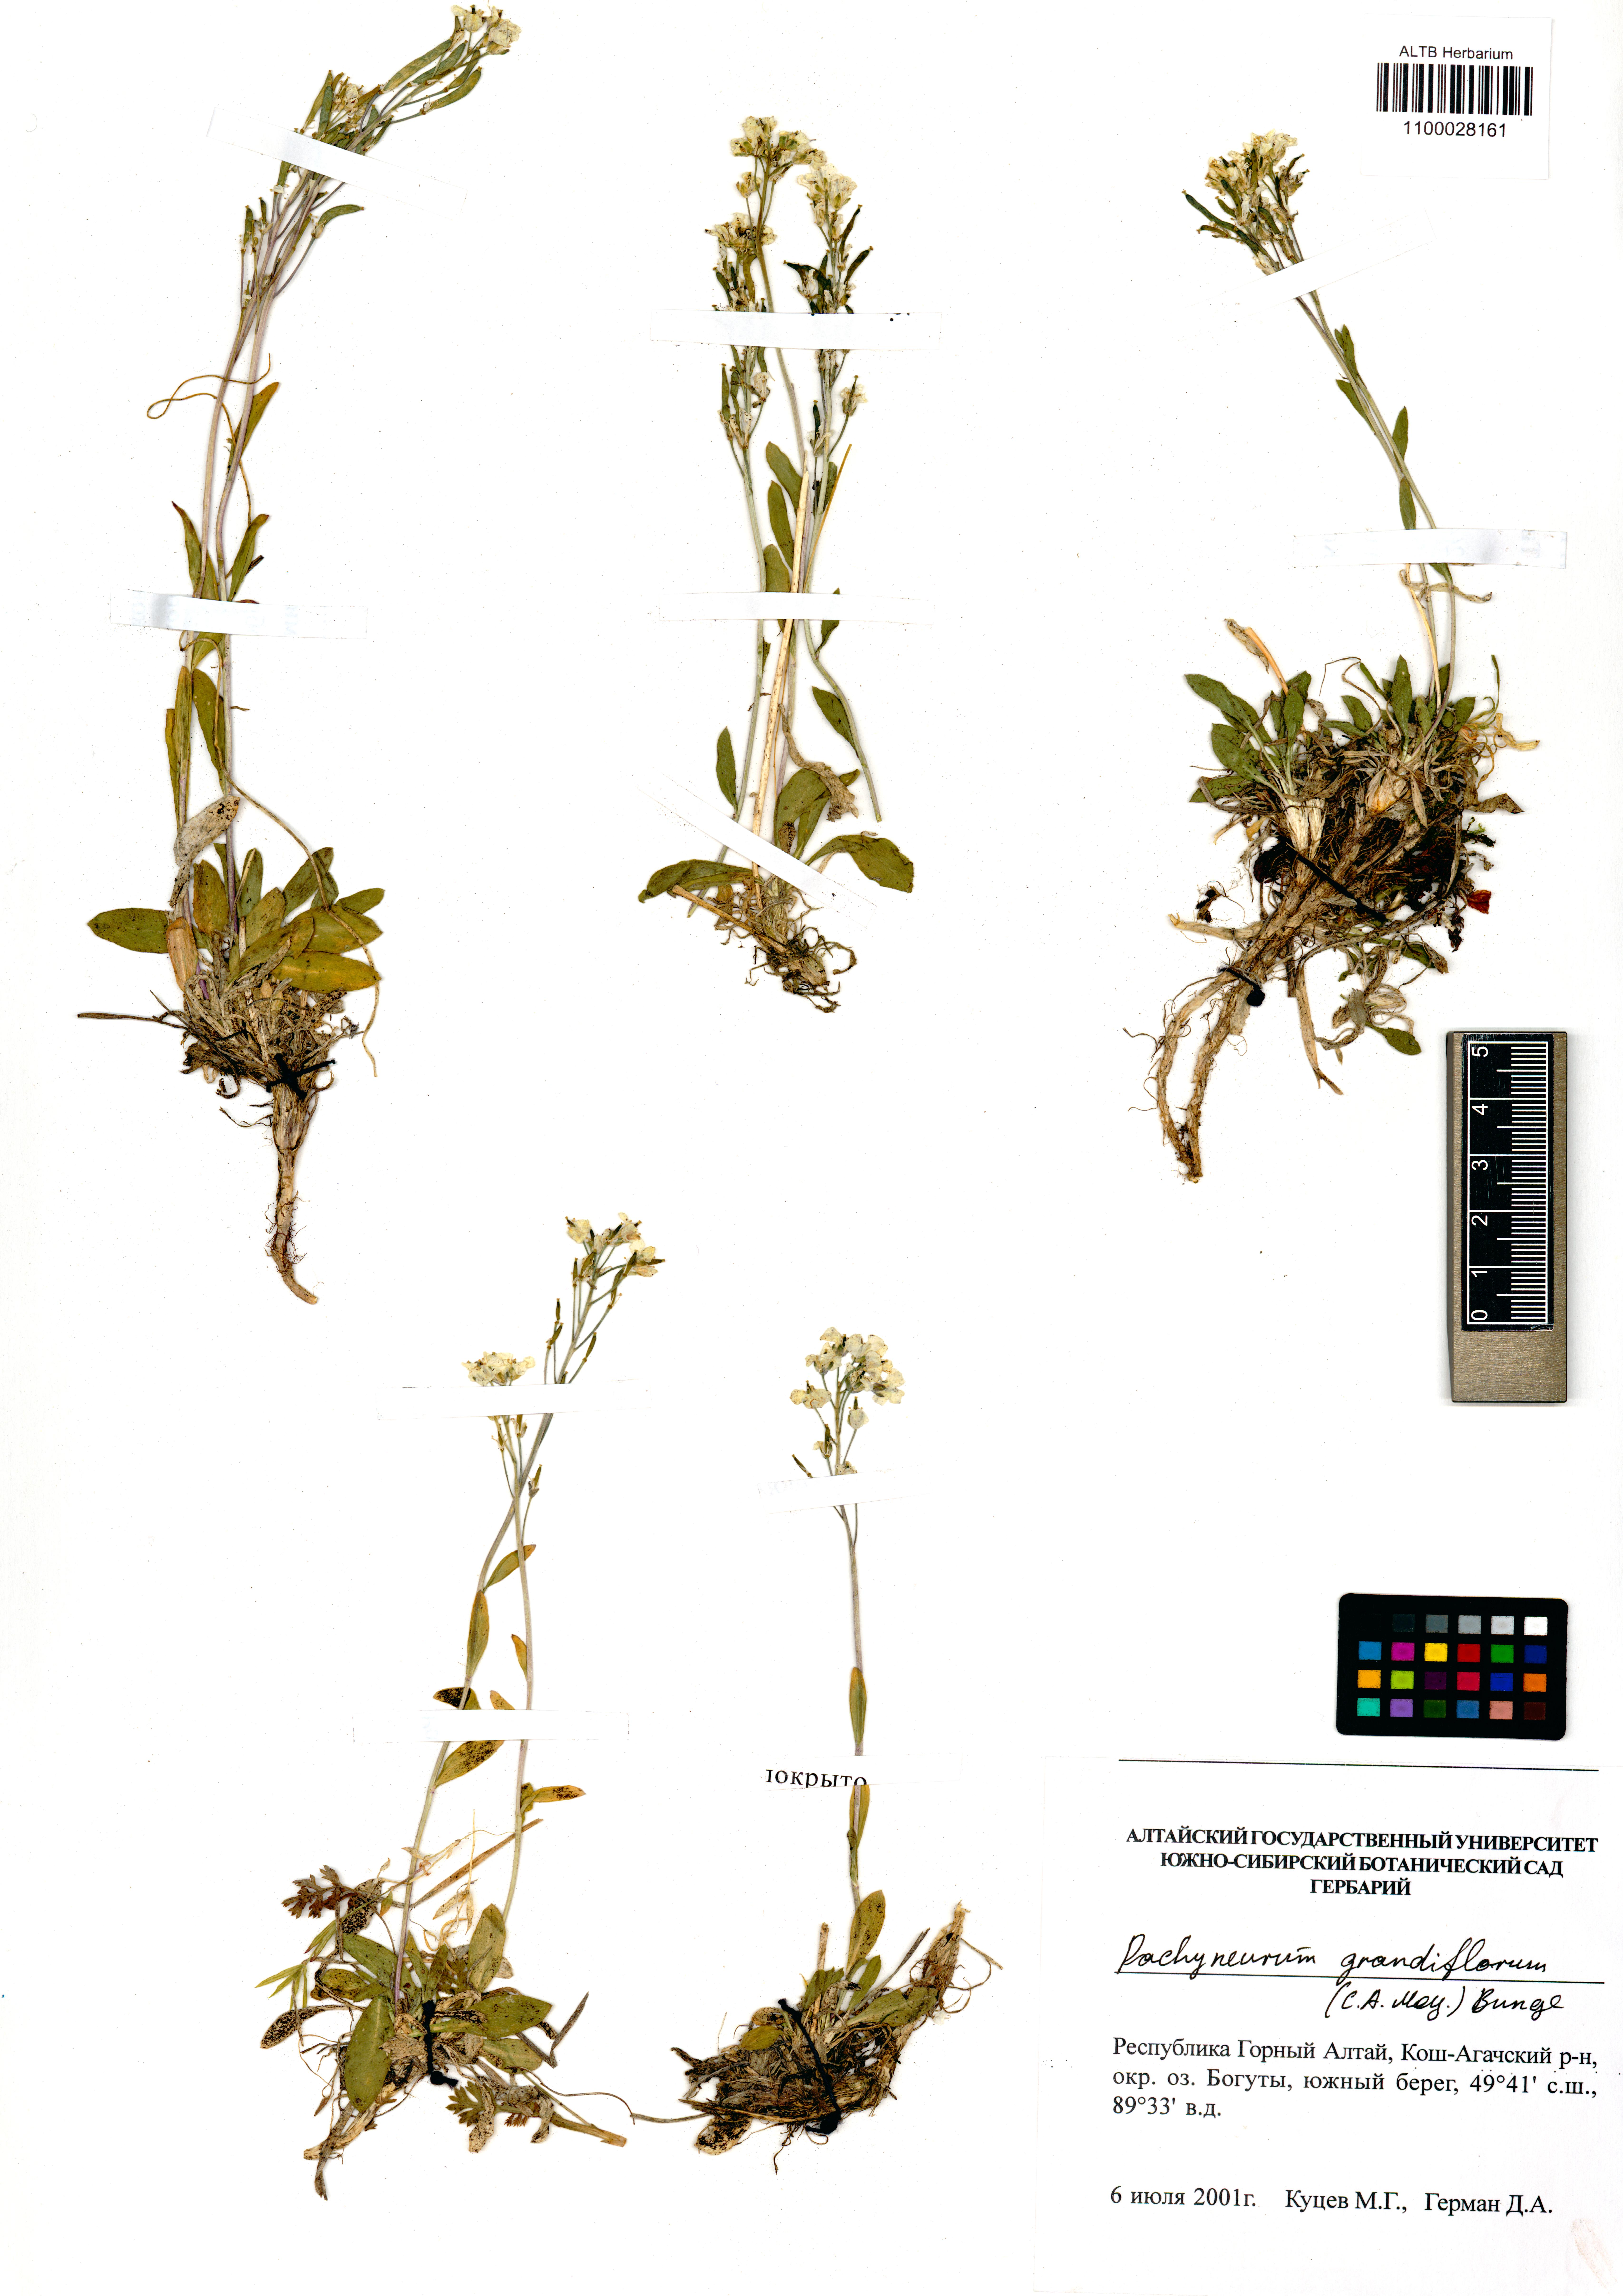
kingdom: Plantae
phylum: Tracheophyta
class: Magnoliopsida
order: Brassicales
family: Brassicaceae
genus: Pachyneurum
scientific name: Pachyneurum grandiflorum
